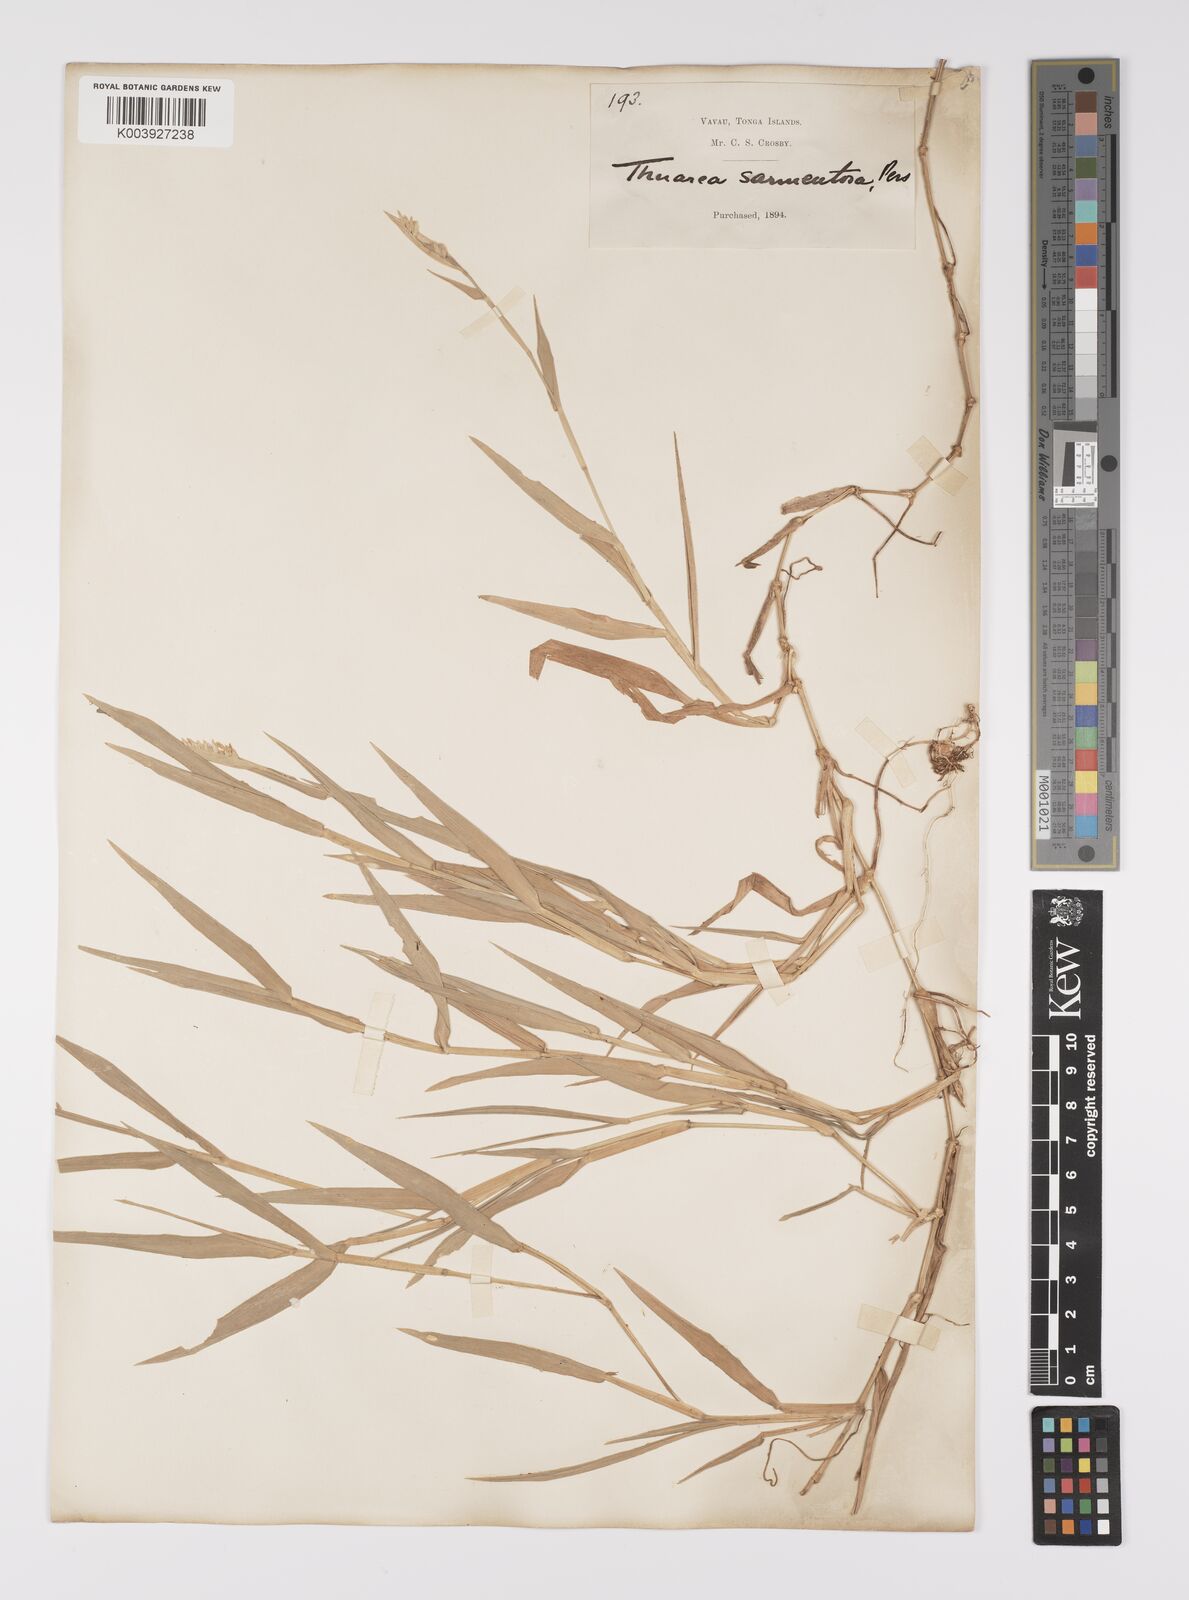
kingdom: Plantae
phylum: Tracheophyta
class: Liliopsida
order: Poales
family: Poaceae
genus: Thuarea
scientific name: Thuarea involuta
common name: Tropical beach grass
